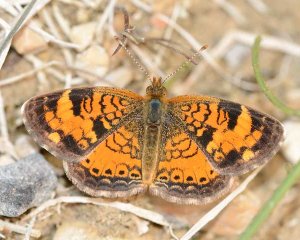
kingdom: Animalia
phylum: Arthropoda
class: Insecta
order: Lepidoptera
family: Nymphalidae
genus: Phyciodes
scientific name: Phyciodes tharos
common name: Northern Crescent
